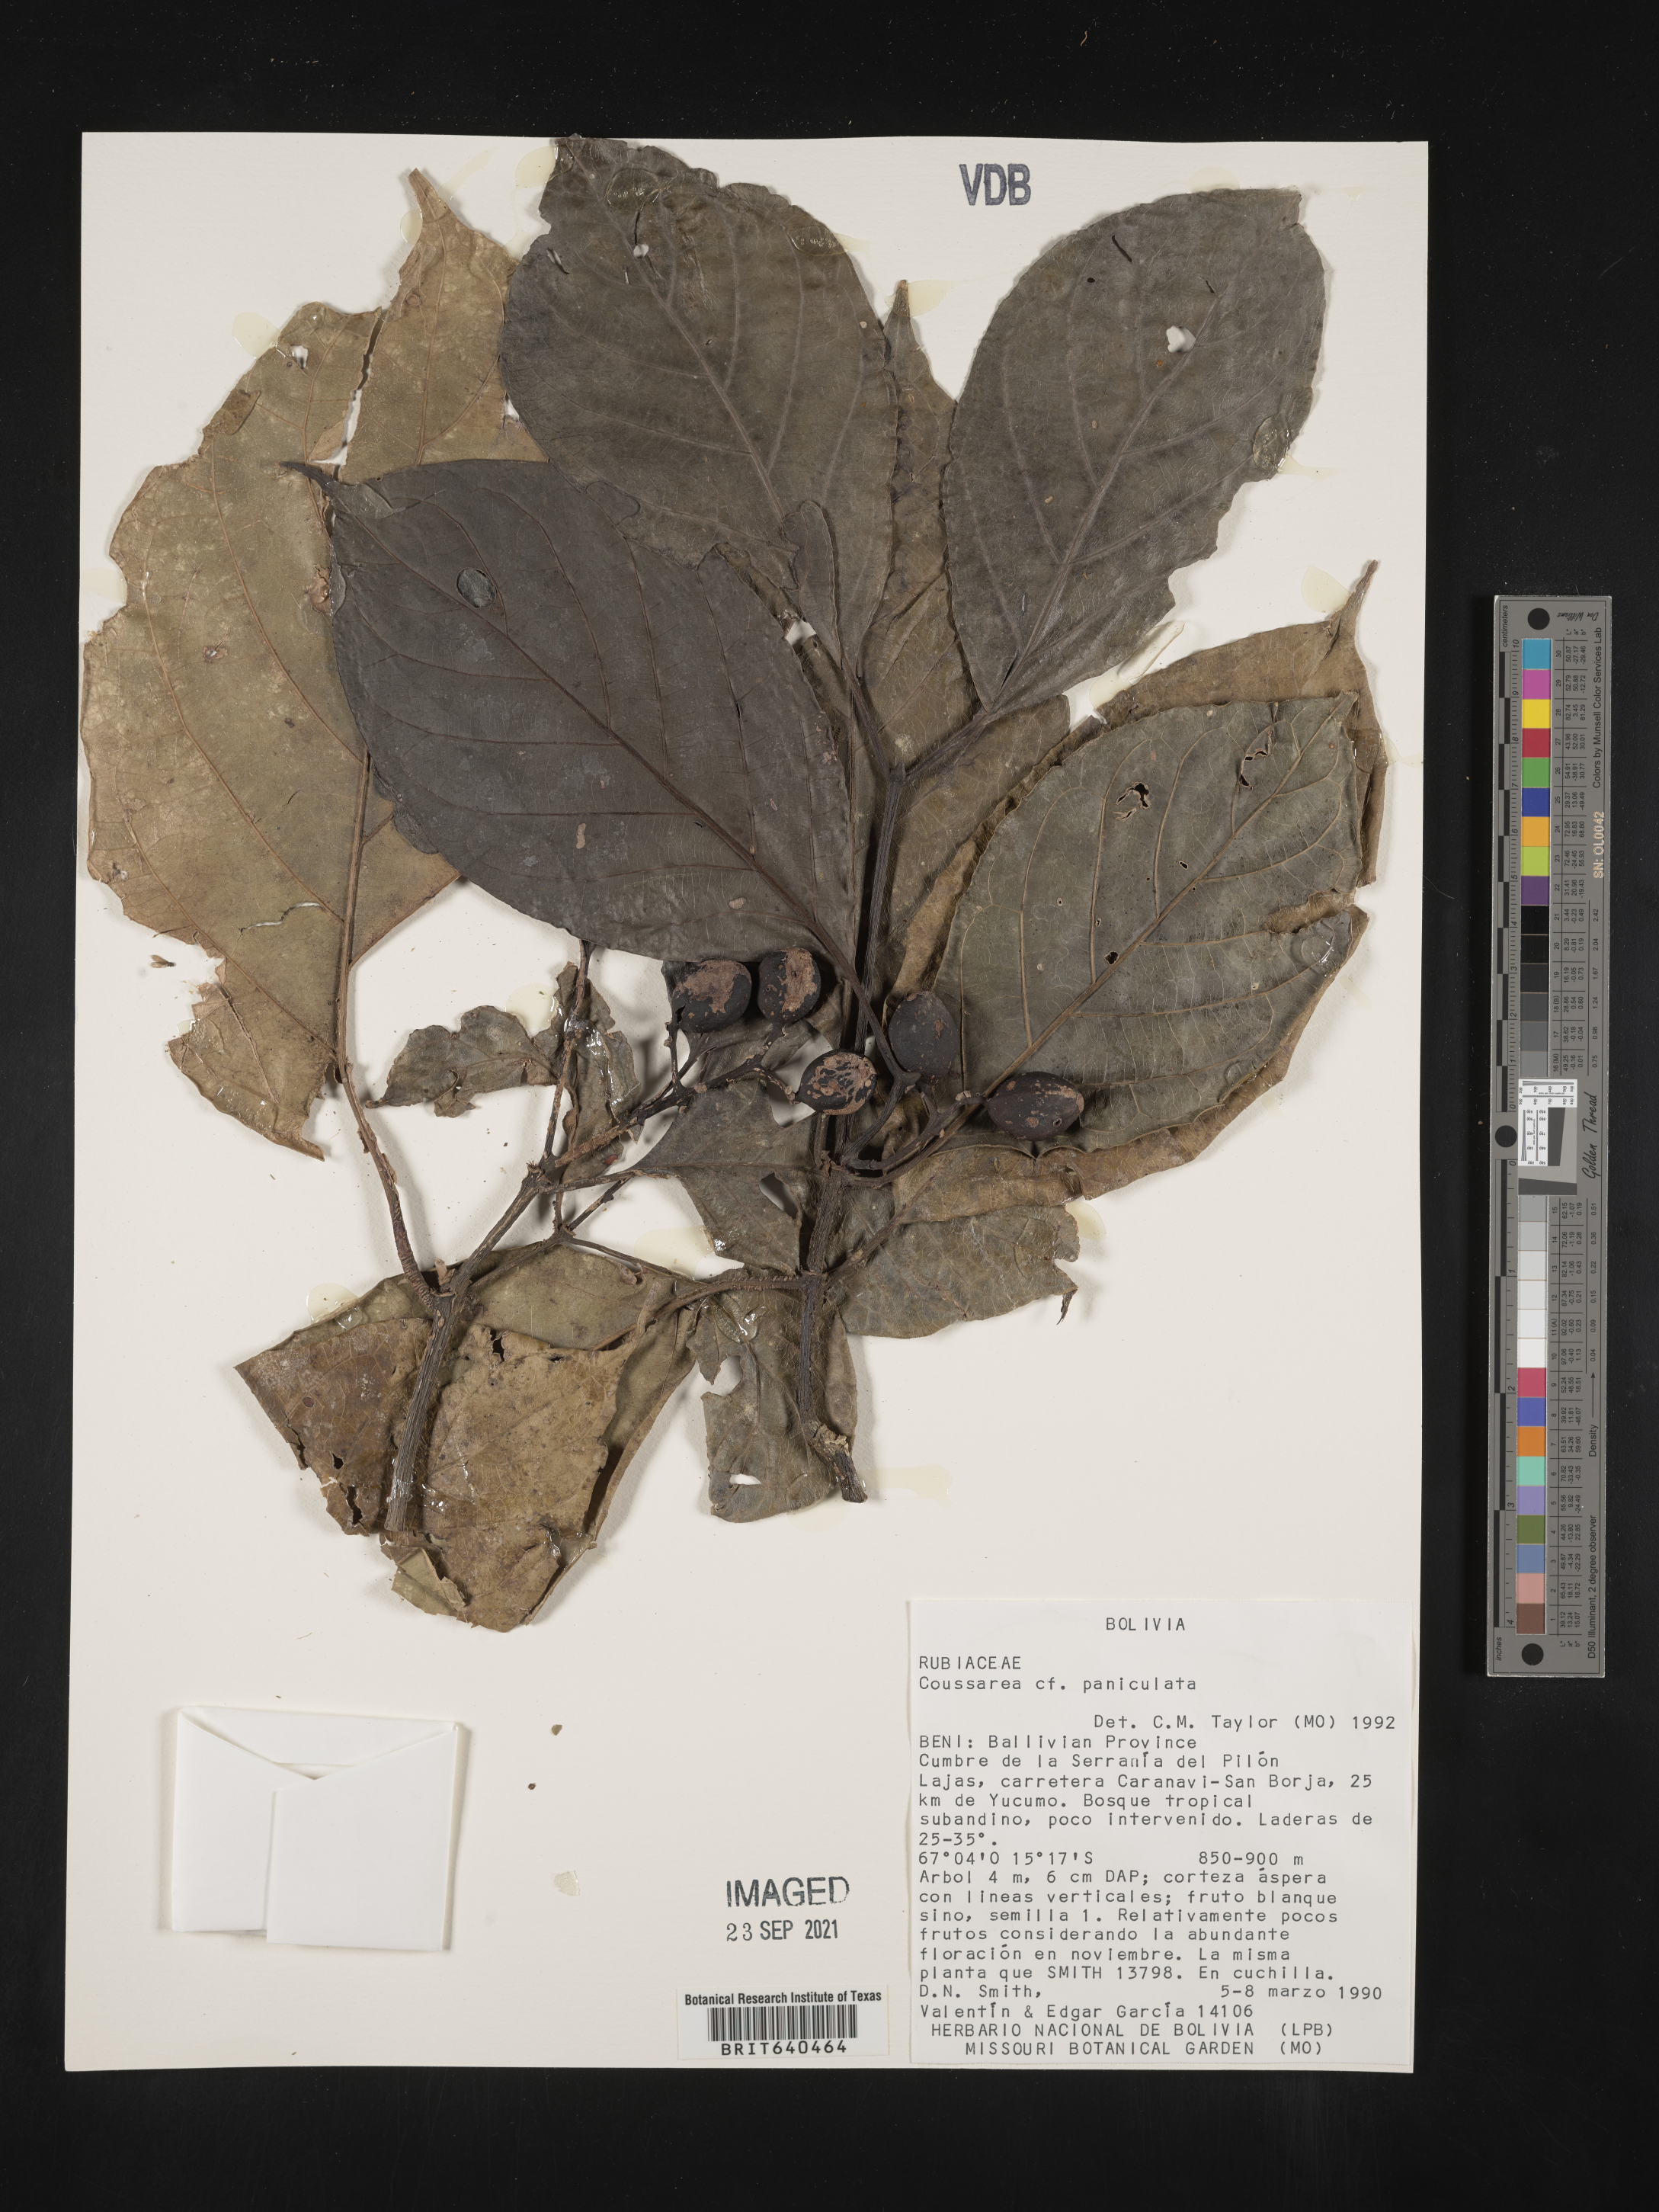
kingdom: Plantae
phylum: Tracheophyta
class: Magnoliopsida
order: Gentianales
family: Rubiaceae
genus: Coussarea
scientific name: Coussarea
